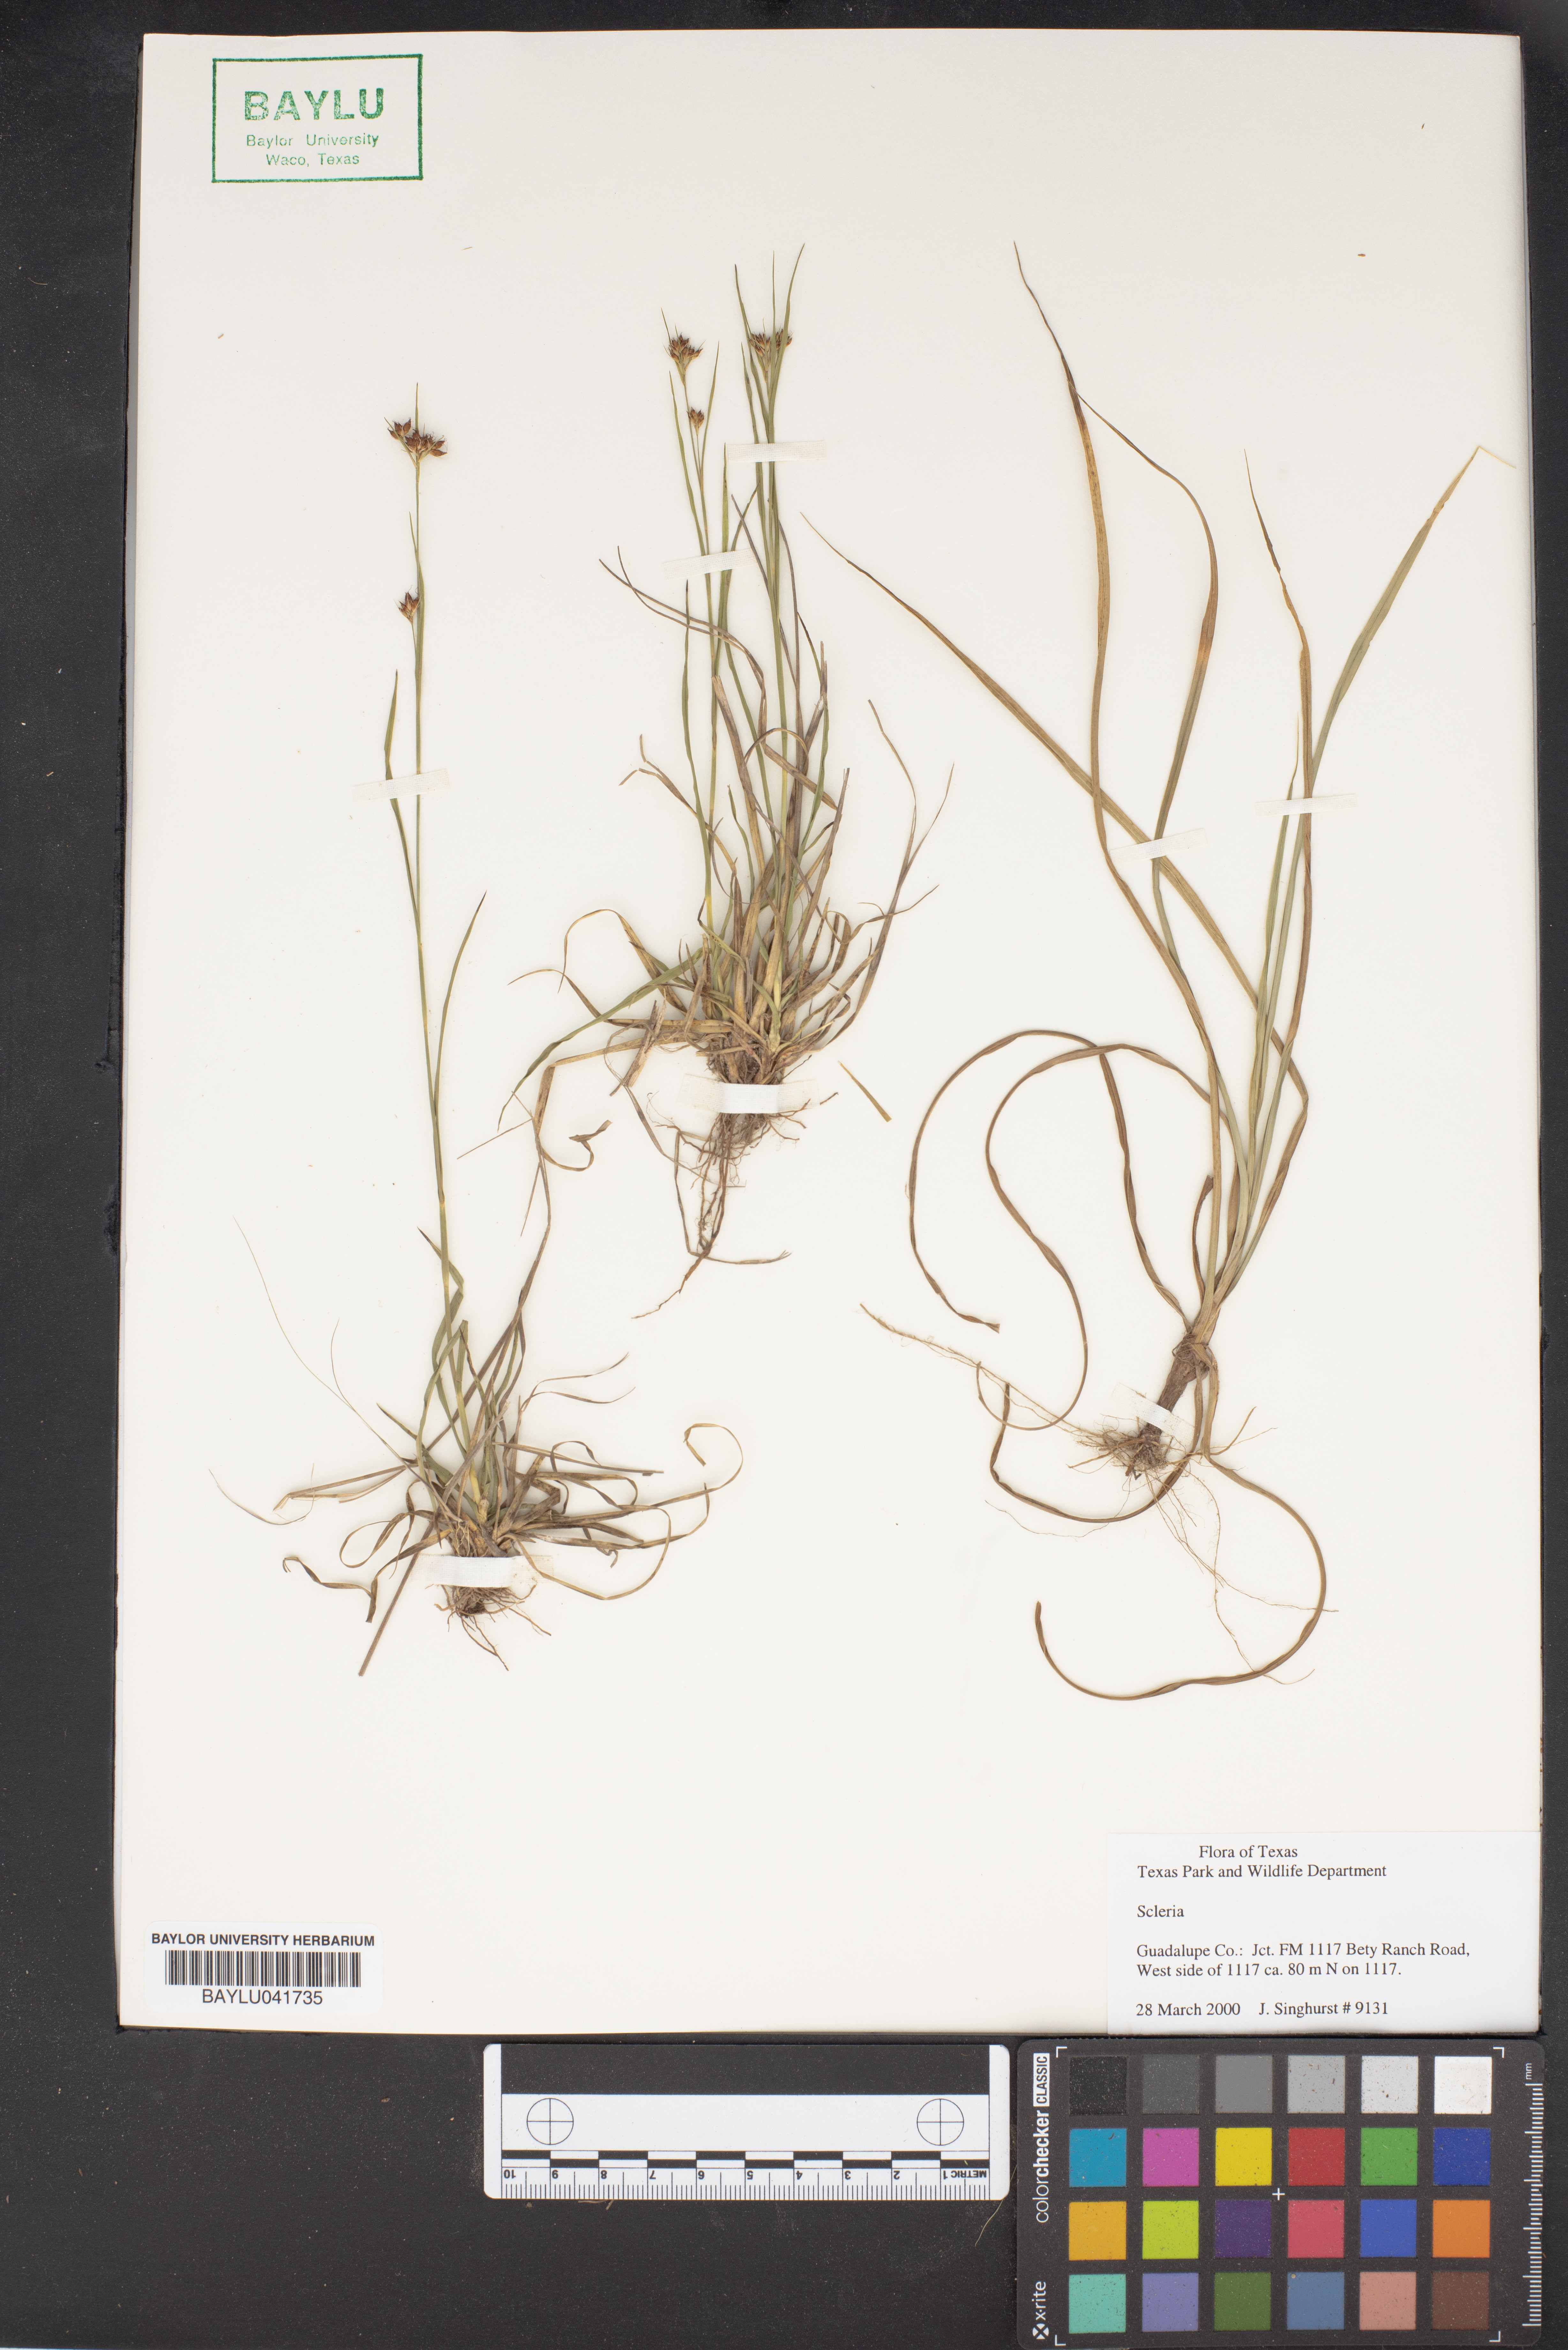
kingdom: Plantae
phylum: Tracheophyta
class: Liliopsida
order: Poales
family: Cyperaceae
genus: Scleria
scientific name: Scleria
